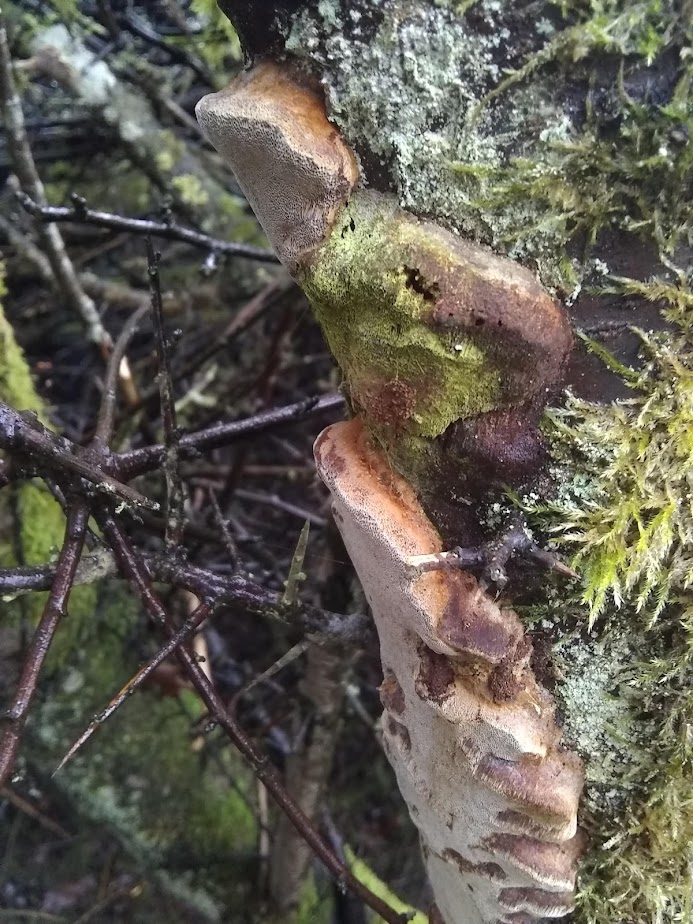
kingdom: Fungi
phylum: Basidiomycota
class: Agaricomycetes
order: Hymenochaetales
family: Hymenochaetaceae
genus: Phellinus
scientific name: Phellinus pomaceus
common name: blomme-ildporesvamp
